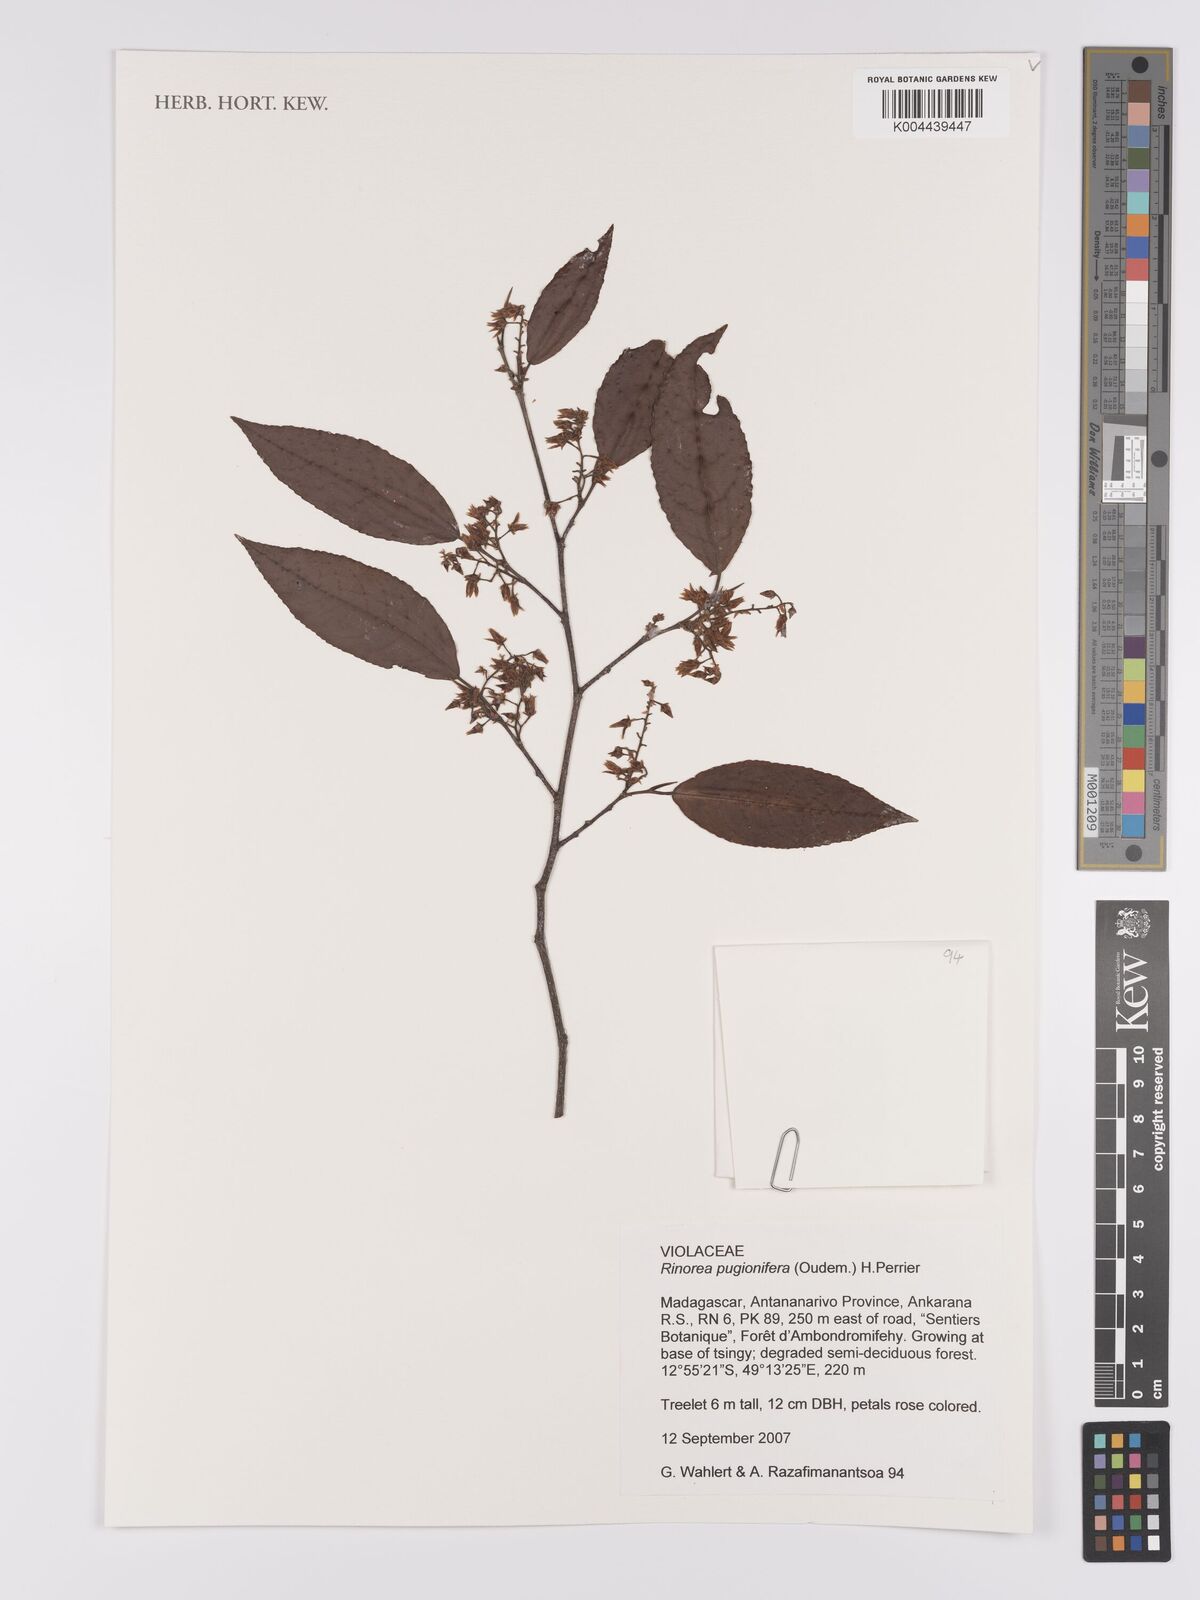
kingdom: Plantae
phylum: Tracheophyta
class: Magnoliopsida
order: Malpighiales
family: Violaceae
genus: Rinorea
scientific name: Rinorea pugionifera
